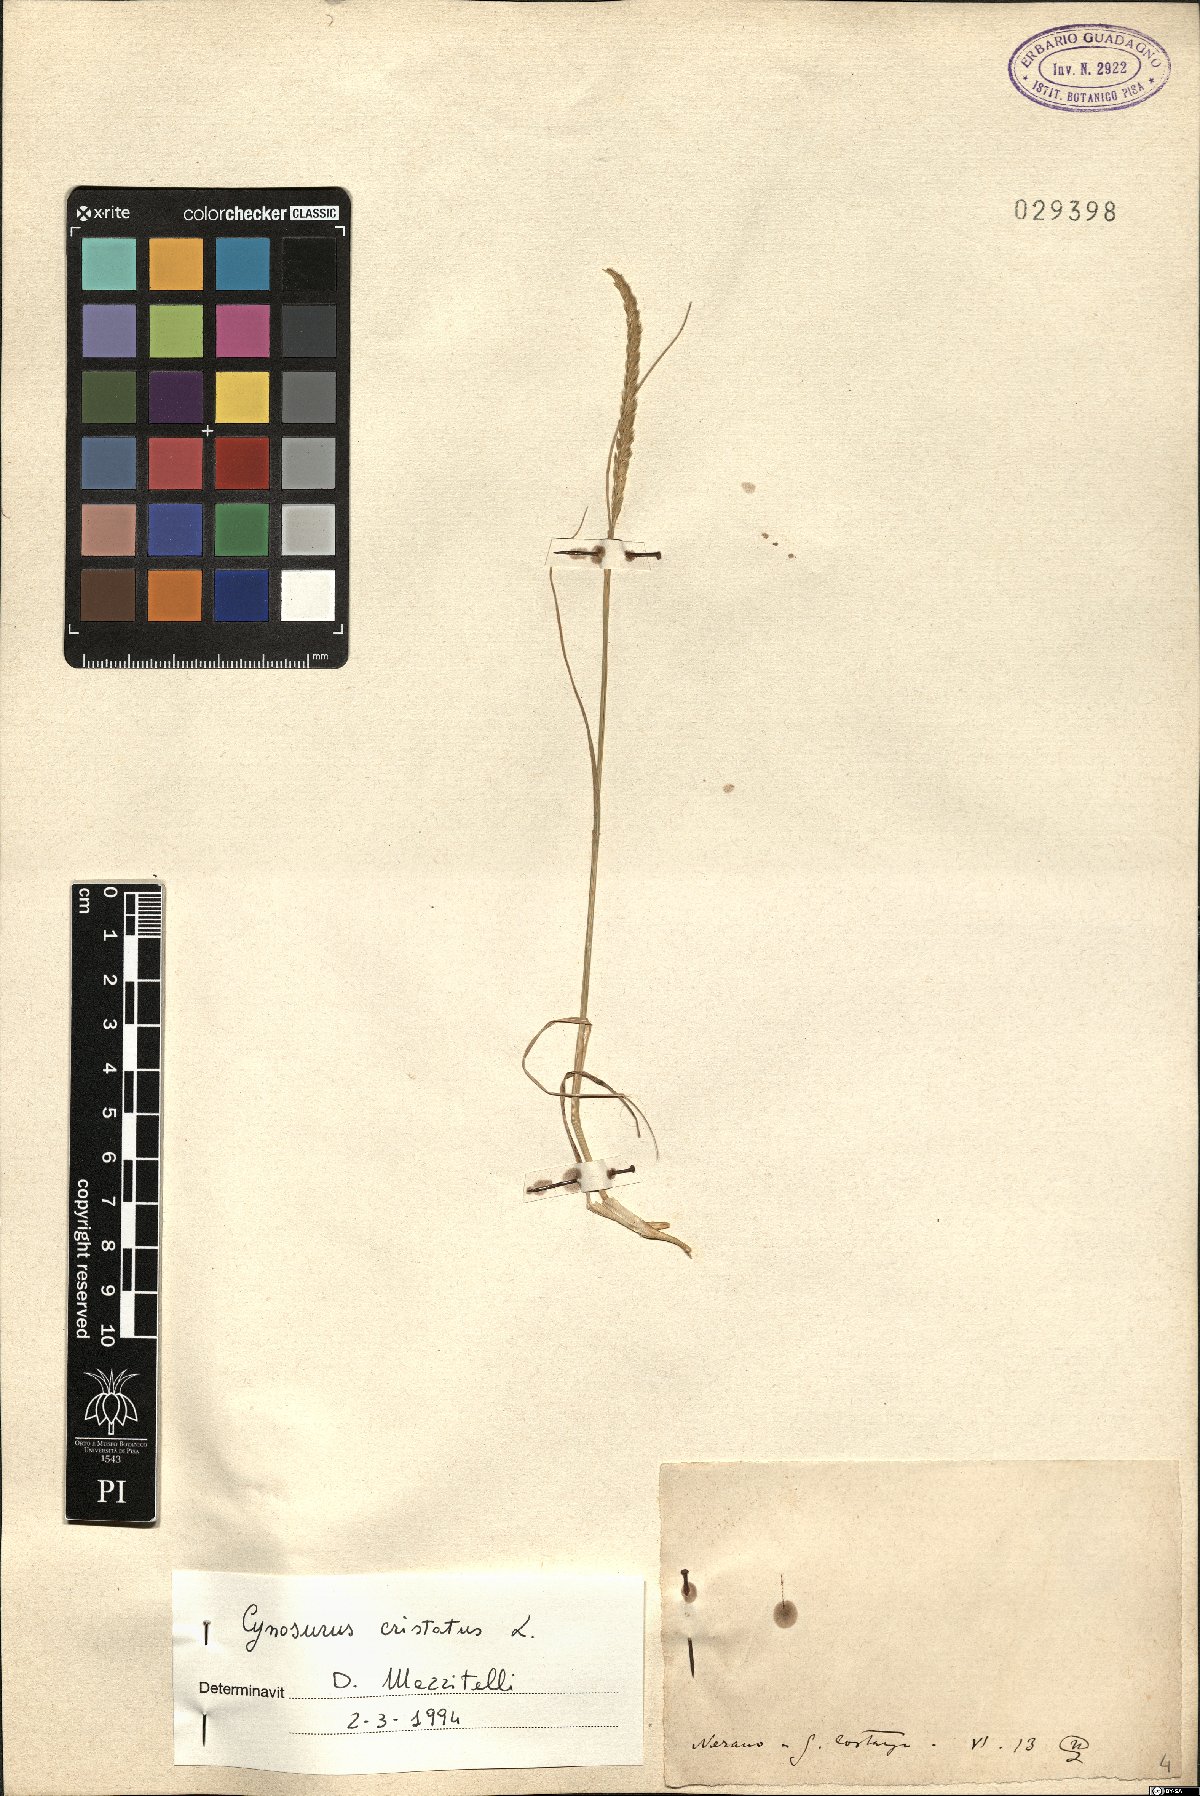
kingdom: Plantae
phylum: Tracheophyta
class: Liliopsida
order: Poales
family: Poaceae
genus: Cynosurus
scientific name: Cynosurus cristatus
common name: Crested dog's-tail
